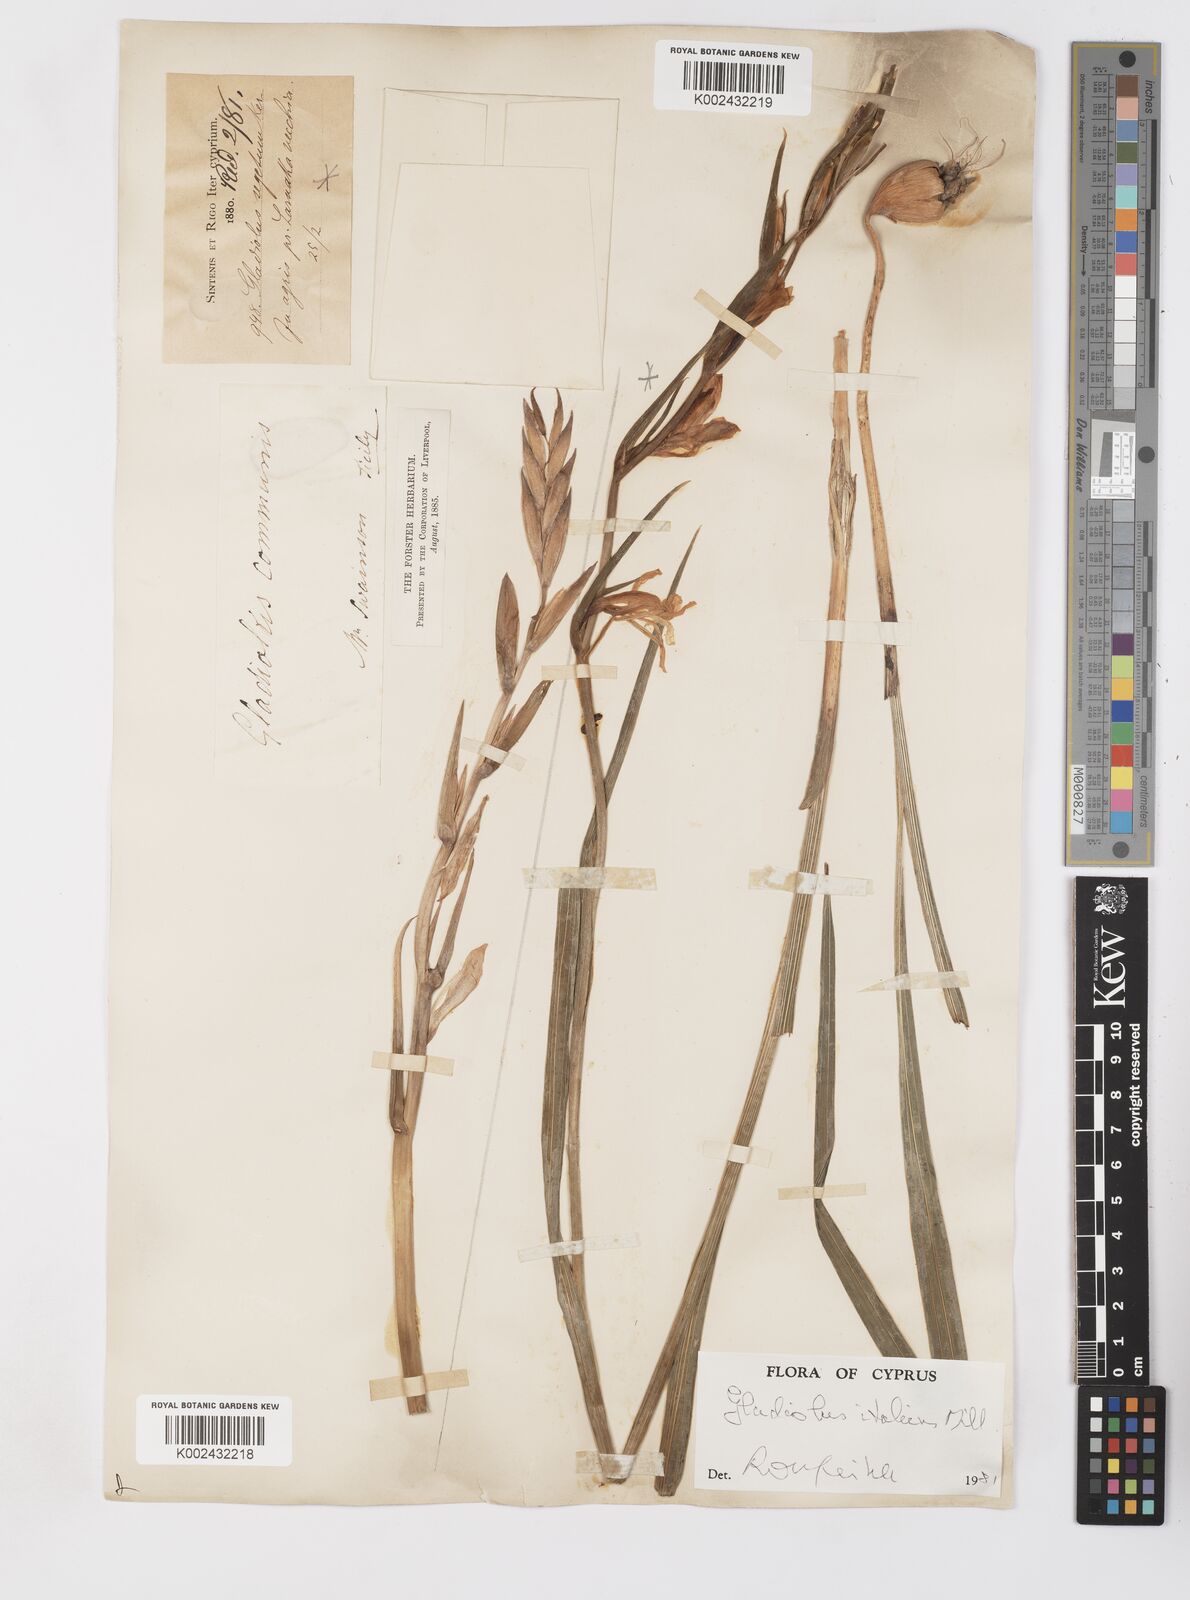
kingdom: Plantae
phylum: Tracheophyta
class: Liliopsida
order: Asparagales
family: Iridaceae
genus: Gladiolus
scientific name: Gladiolus italicus
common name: Field gladiolus
